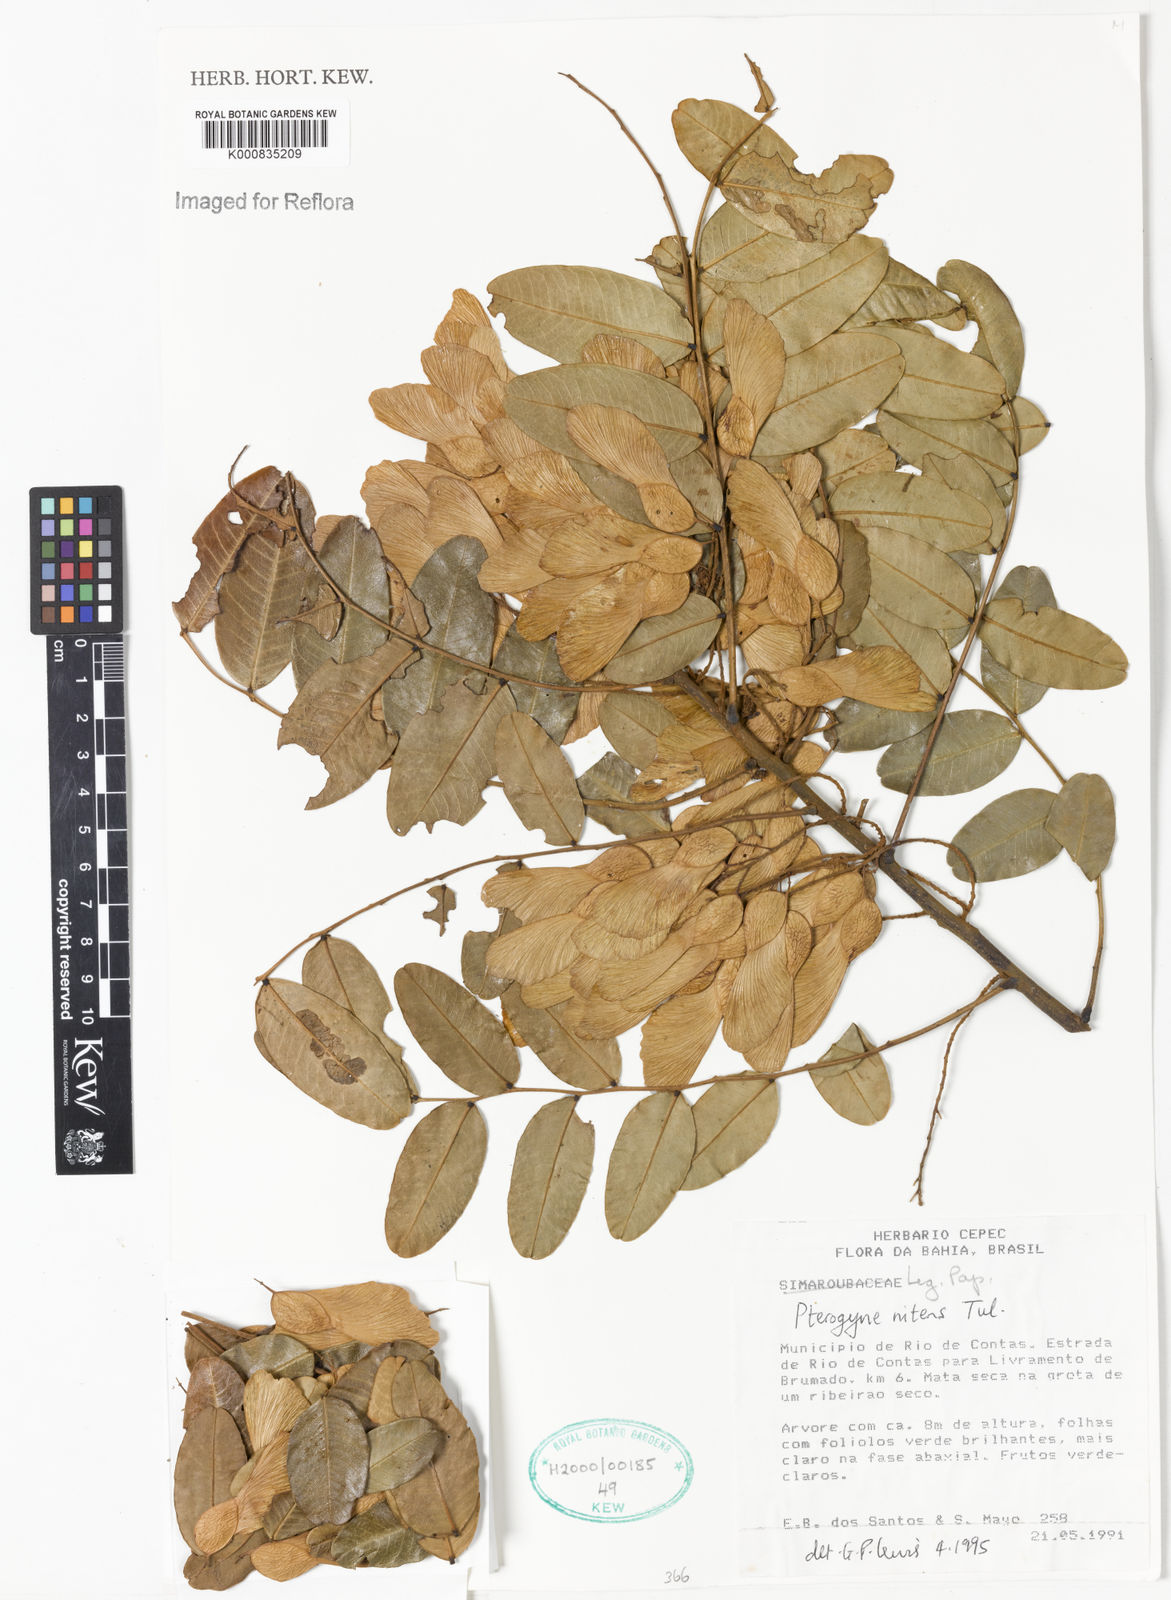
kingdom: Plantae
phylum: Tracheophyta
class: Magnoliopsida
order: Fabales
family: Fabaceae
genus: Pterogyne
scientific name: Pterogyne nitens
